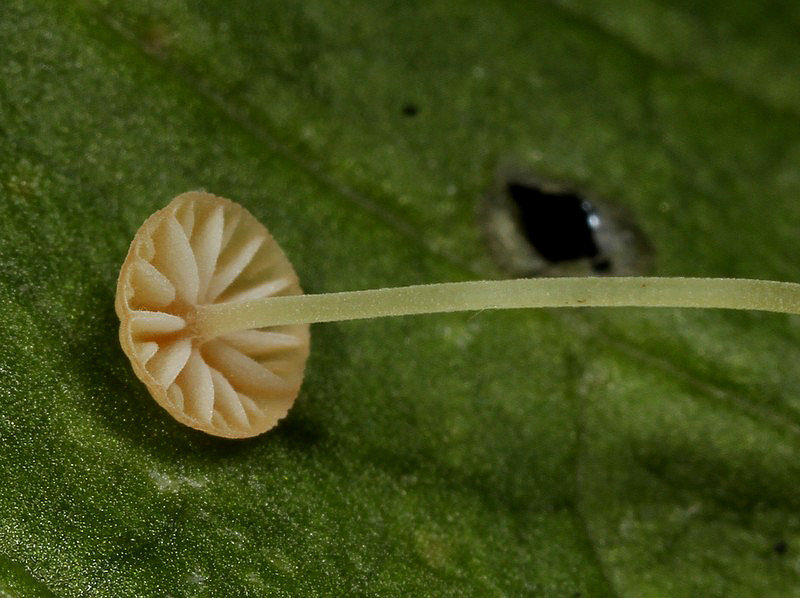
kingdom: Fungi
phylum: Basidiomycota
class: Agaricomycetes
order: Agaricales
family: Mycenaceae
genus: Mycena
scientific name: Mycena acicula
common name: orange huesvamp
